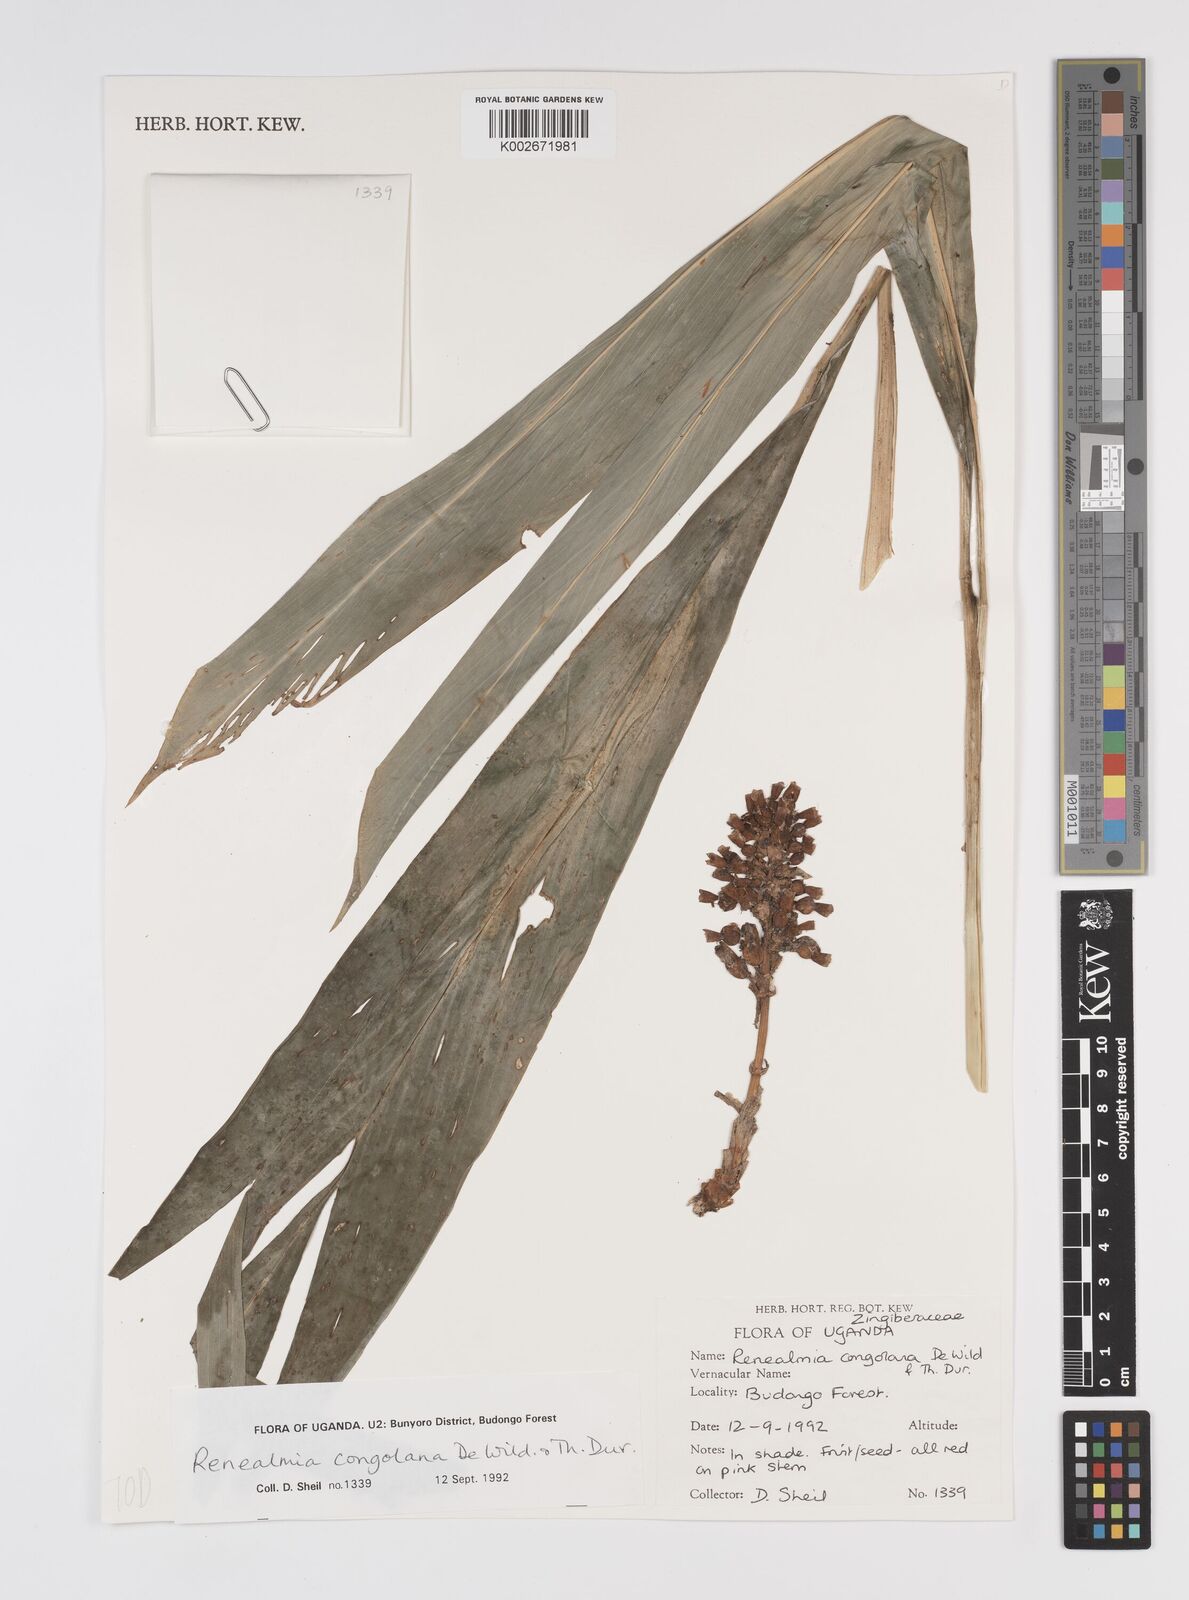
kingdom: Plantae
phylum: Tracheophyta
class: Liliopsida
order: Zingiberales
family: Zingiberaceae
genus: Renealmia
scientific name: Renealmia congolana
